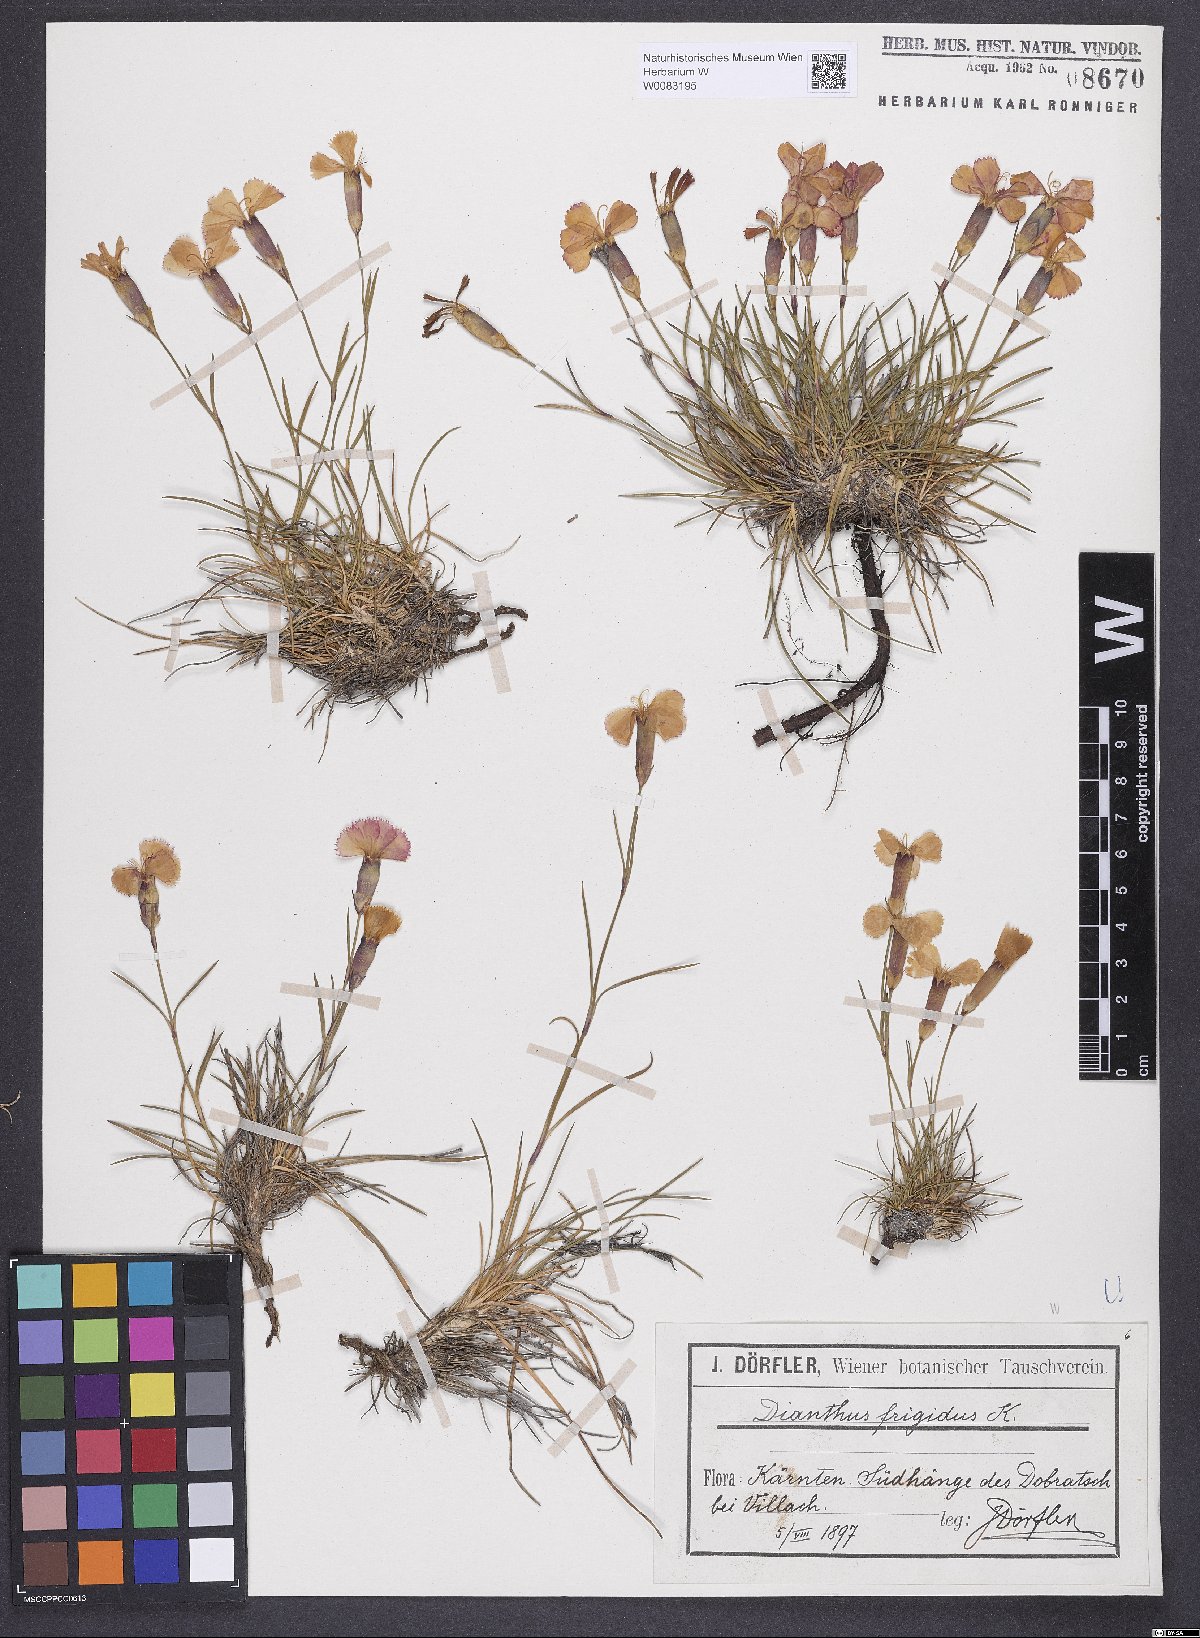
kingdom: Plantae
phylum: Tracheophyta
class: Magnoliopsida
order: Caryophyllales
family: Caryophyllaceae
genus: Dianthus
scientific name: Dianthus sylvestris
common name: Wood pink
